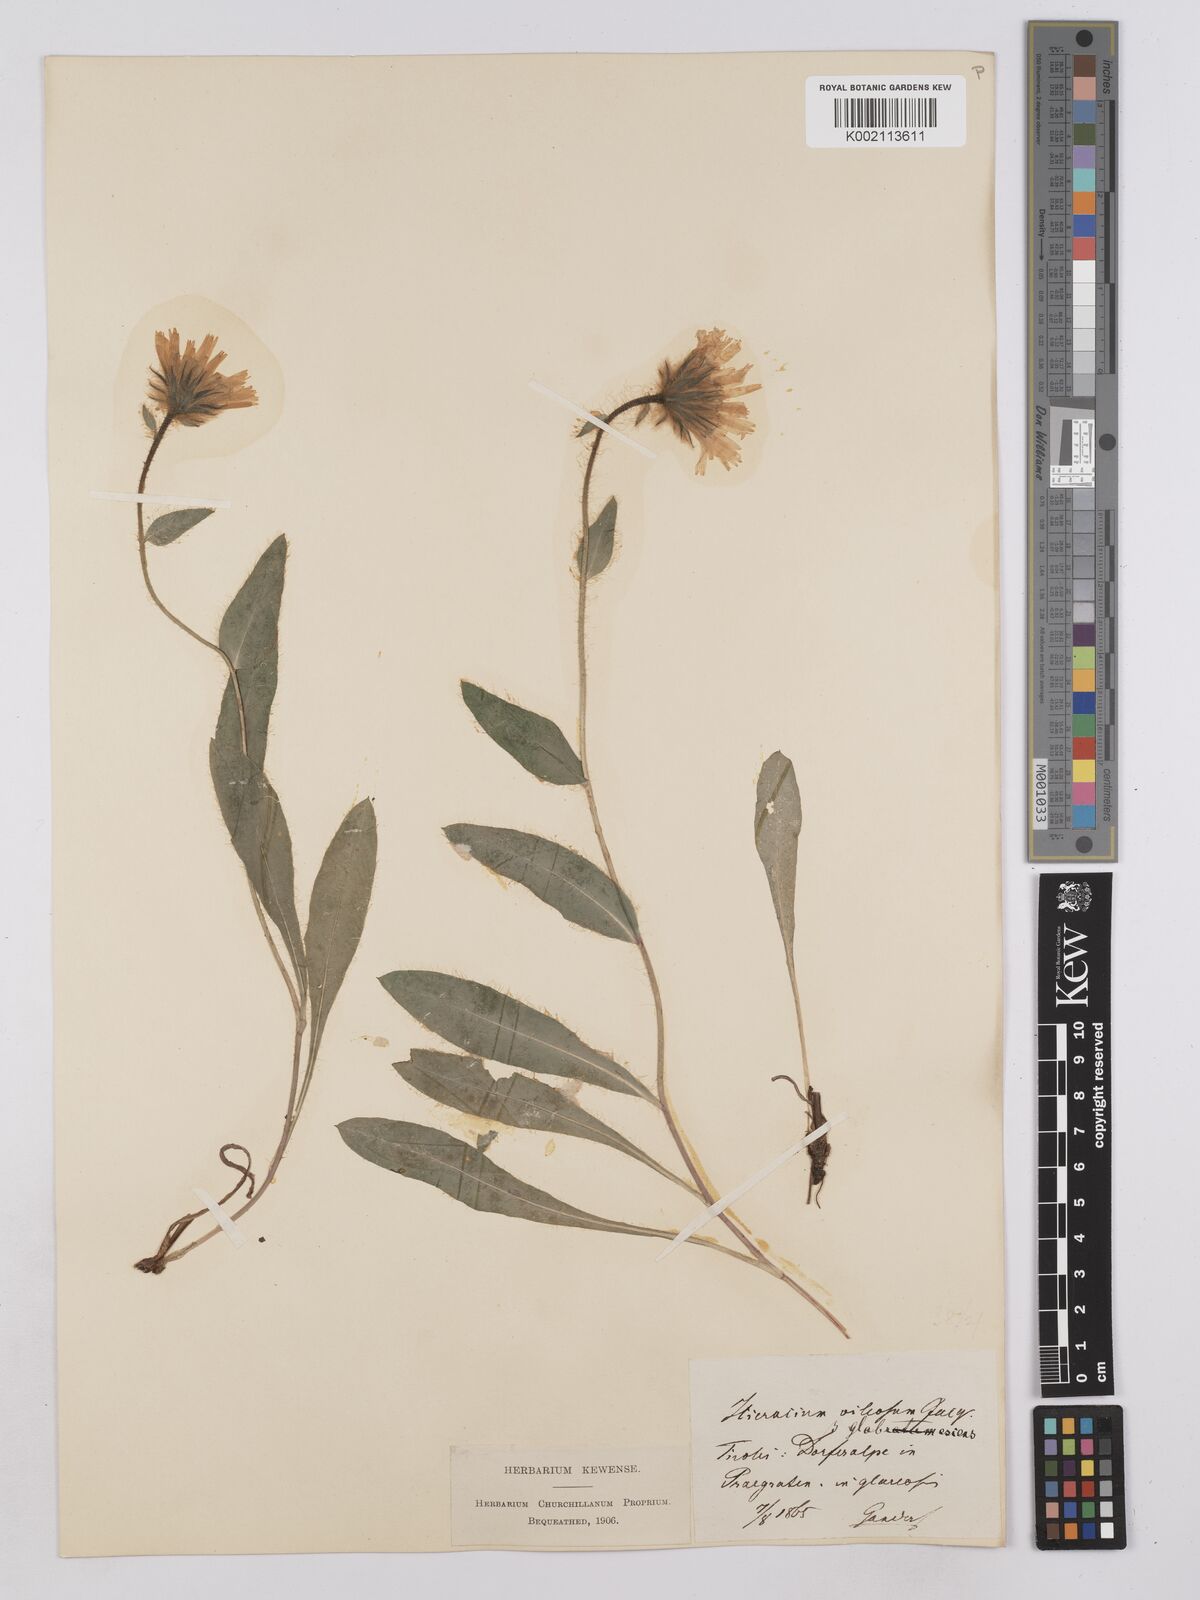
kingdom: Plantae
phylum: Tracheophyta
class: Magnoliopsida
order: Asterales
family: Asteraceae
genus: Hieracium
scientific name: Hieracium villosum
